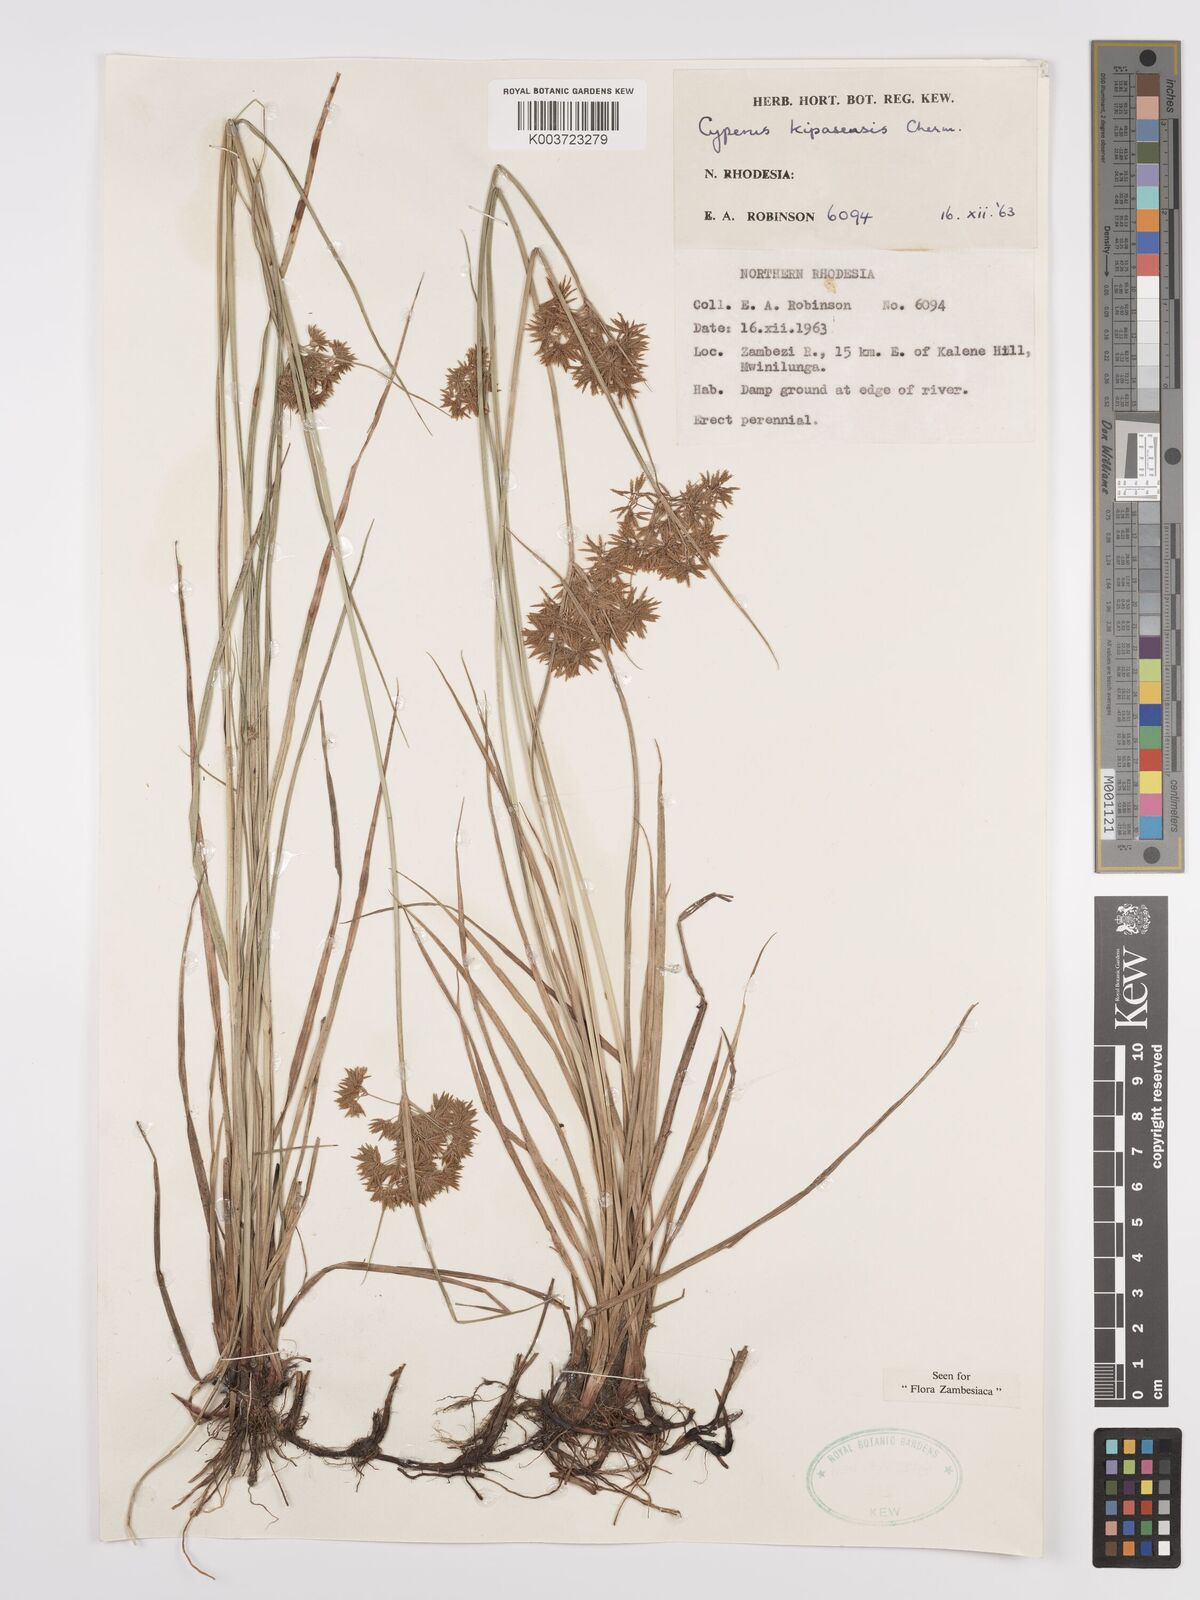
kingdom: Plantae
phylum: Tracheophyta
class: Liliopsida
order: Poales
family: Cyperaceae
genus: Cyperus
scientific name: Cyperus kipasensis
